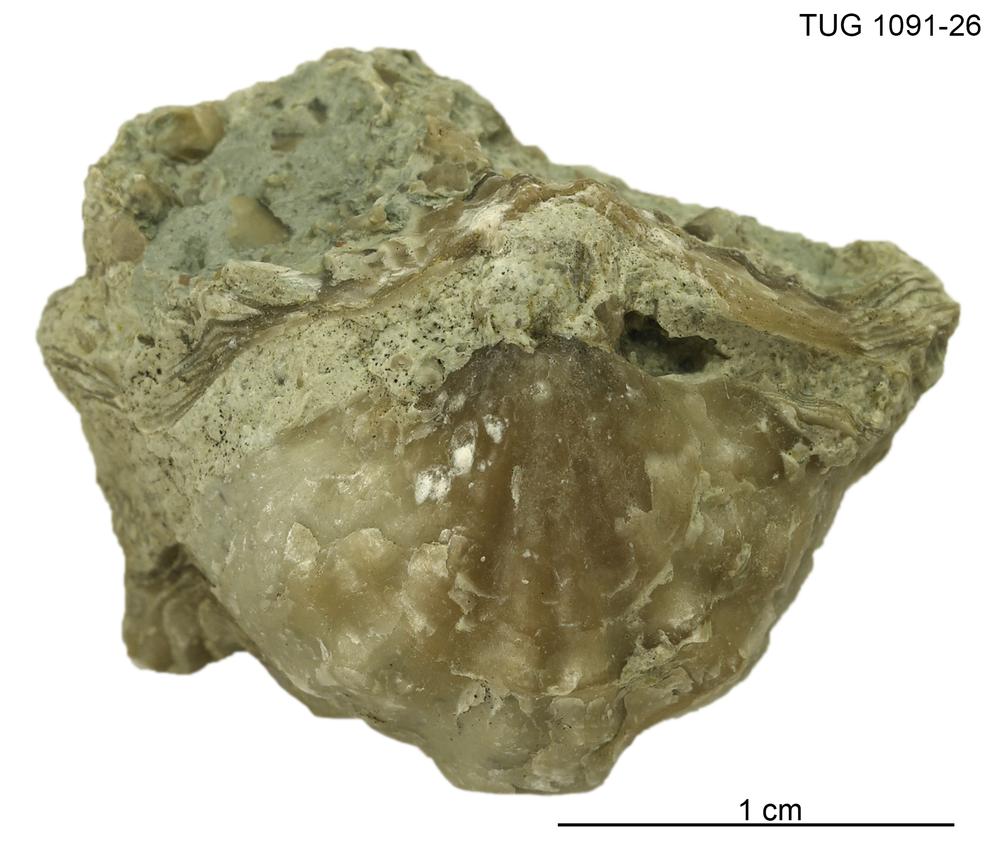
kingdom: Animalia
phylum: Brachiopoda
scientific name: Brachiopoda
